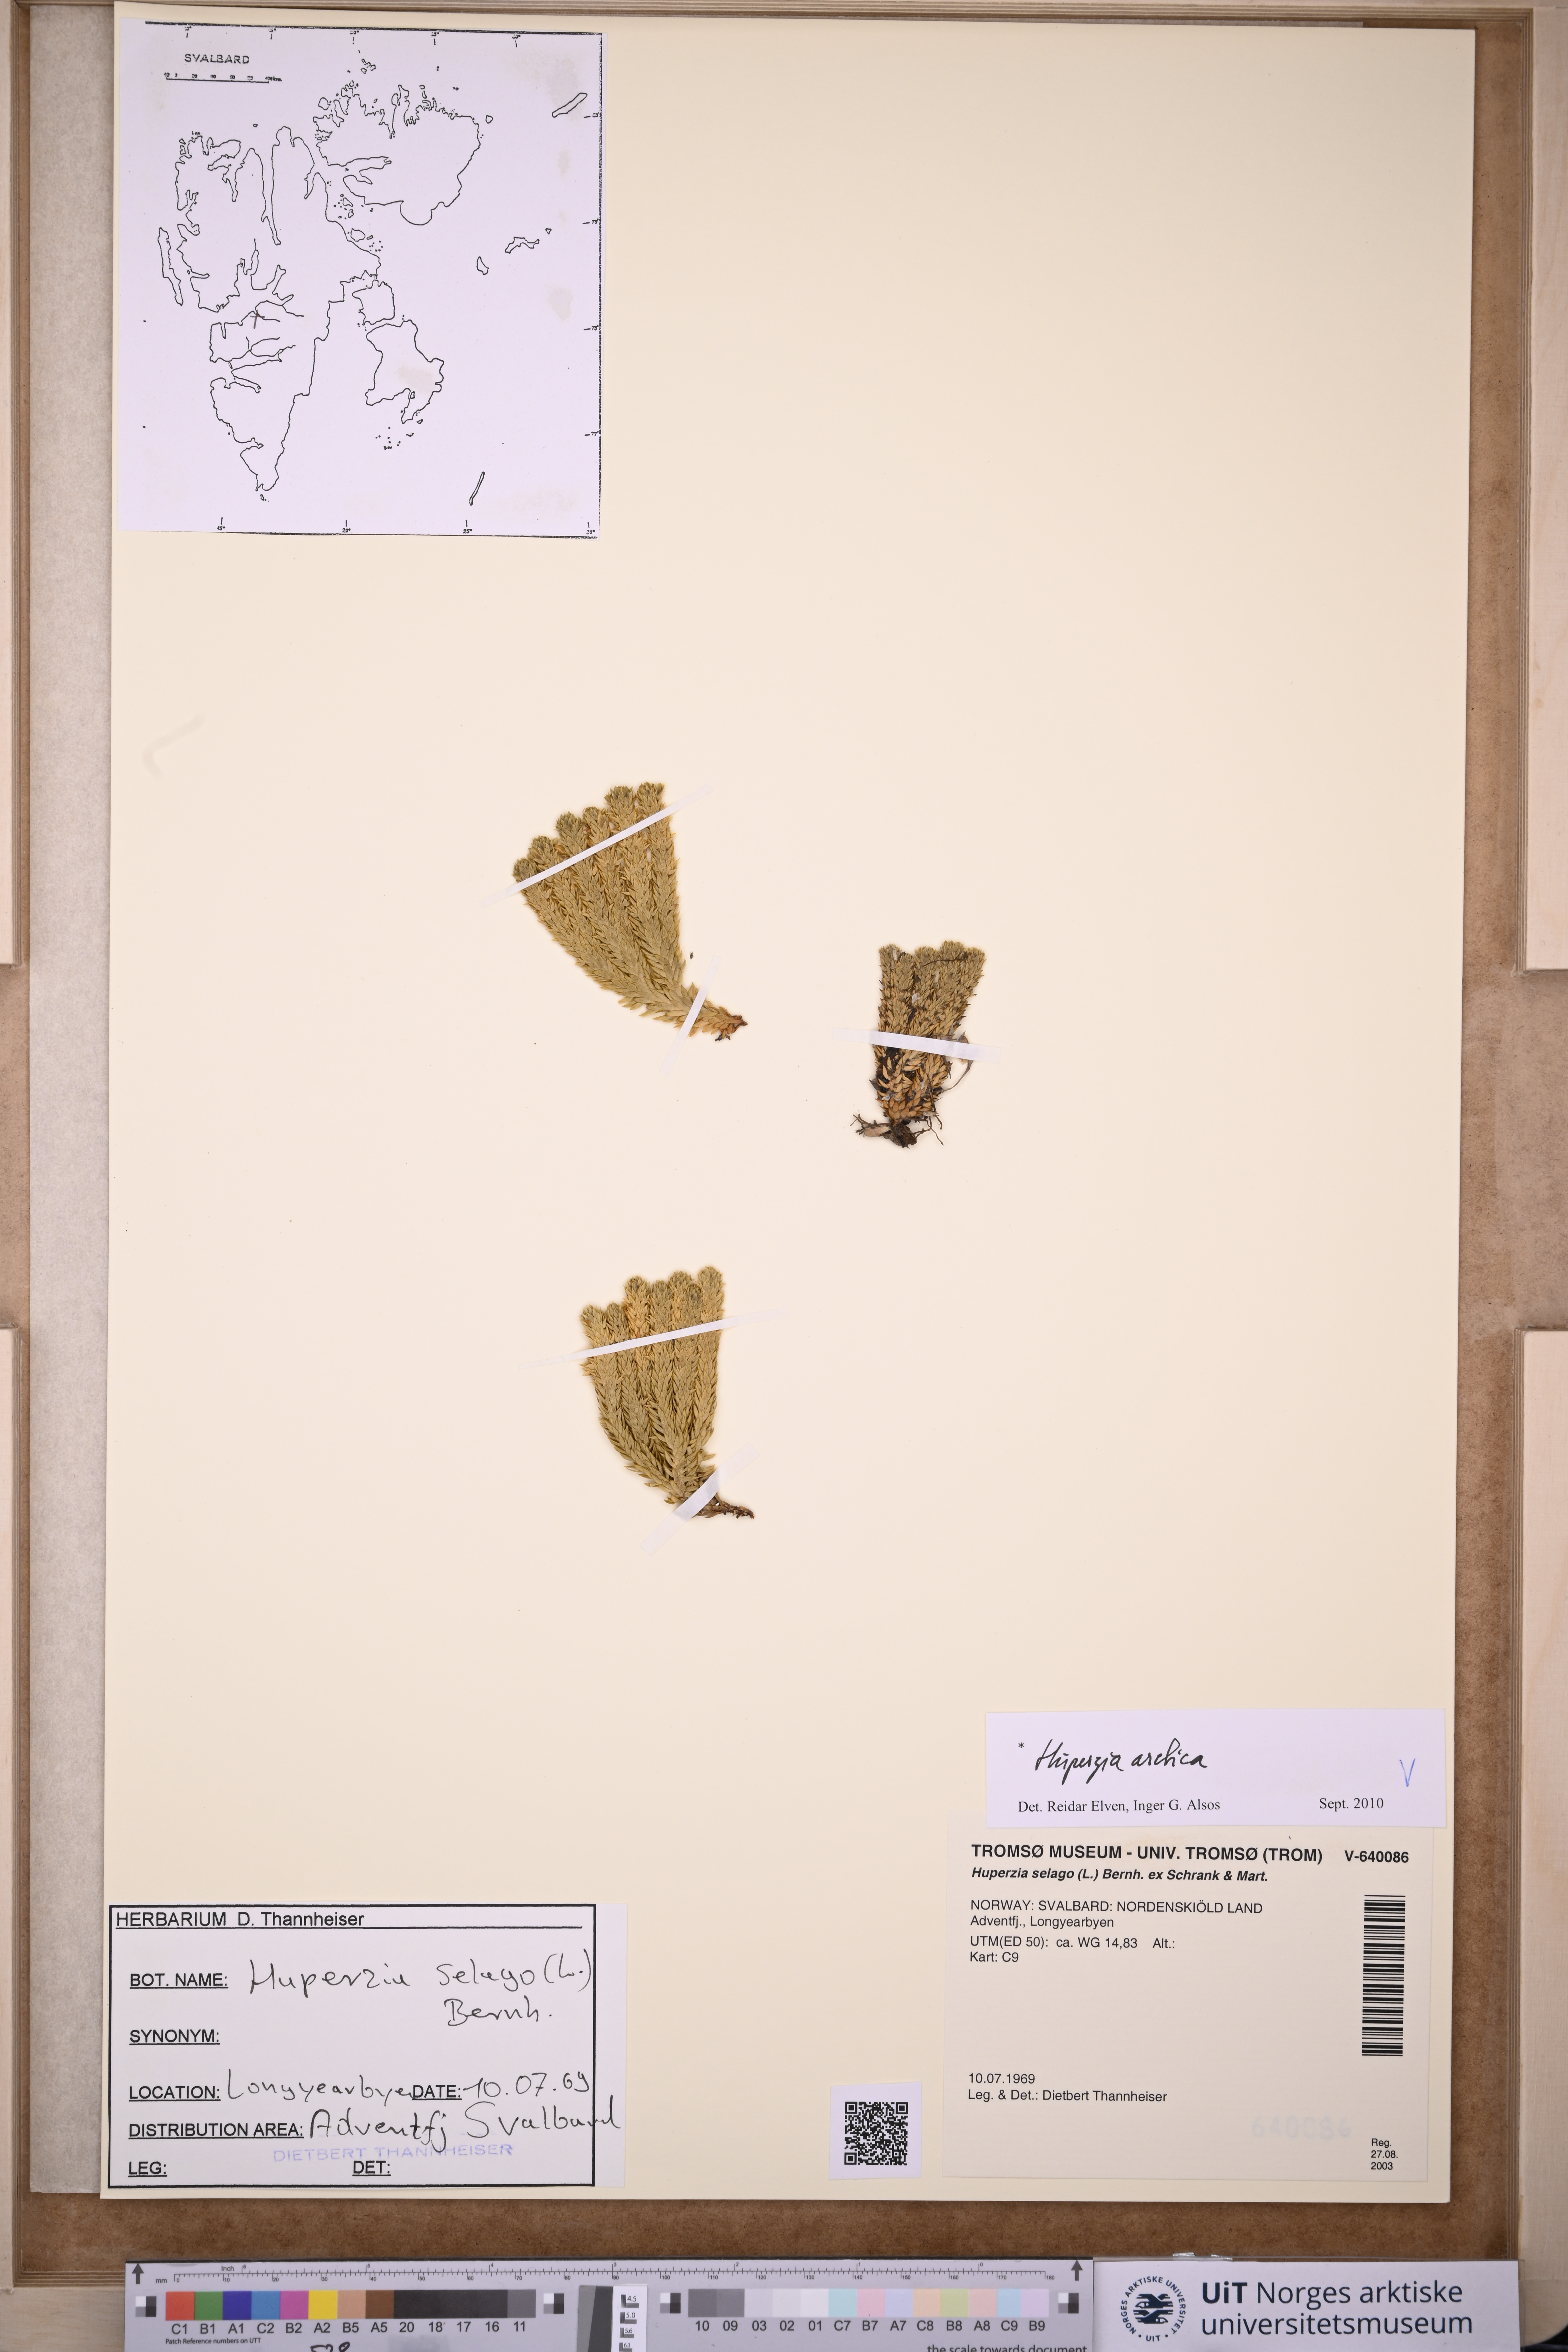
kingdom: Plantae
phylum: Tracheophyta
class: Lycopodiopsida
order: Lycopodiales
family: Lycopodiaceae
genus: Huperzia
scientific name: Huperzia selago
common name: Northern firmoss
